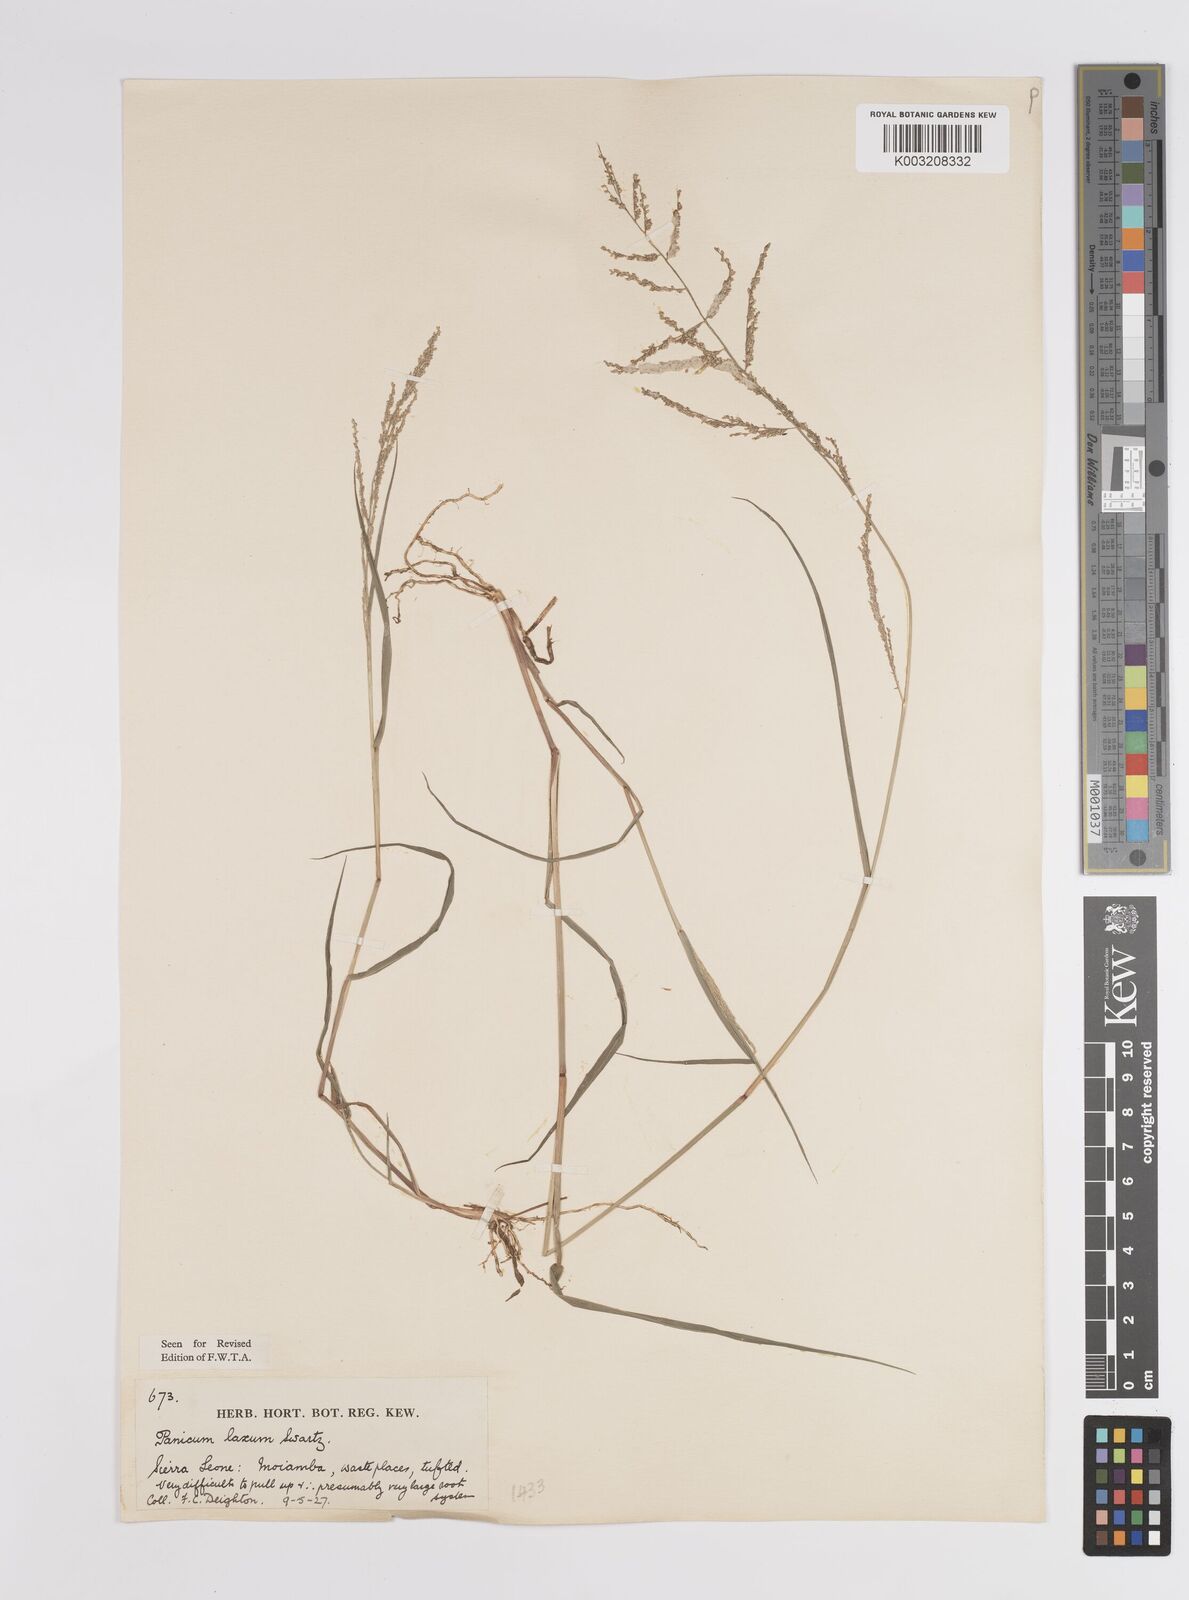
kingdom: Plantae
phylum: Tracheophyta
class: Liliopsida
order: Poales
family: Poaceae
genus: Steinchisma
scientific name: Steinchisma laxum
